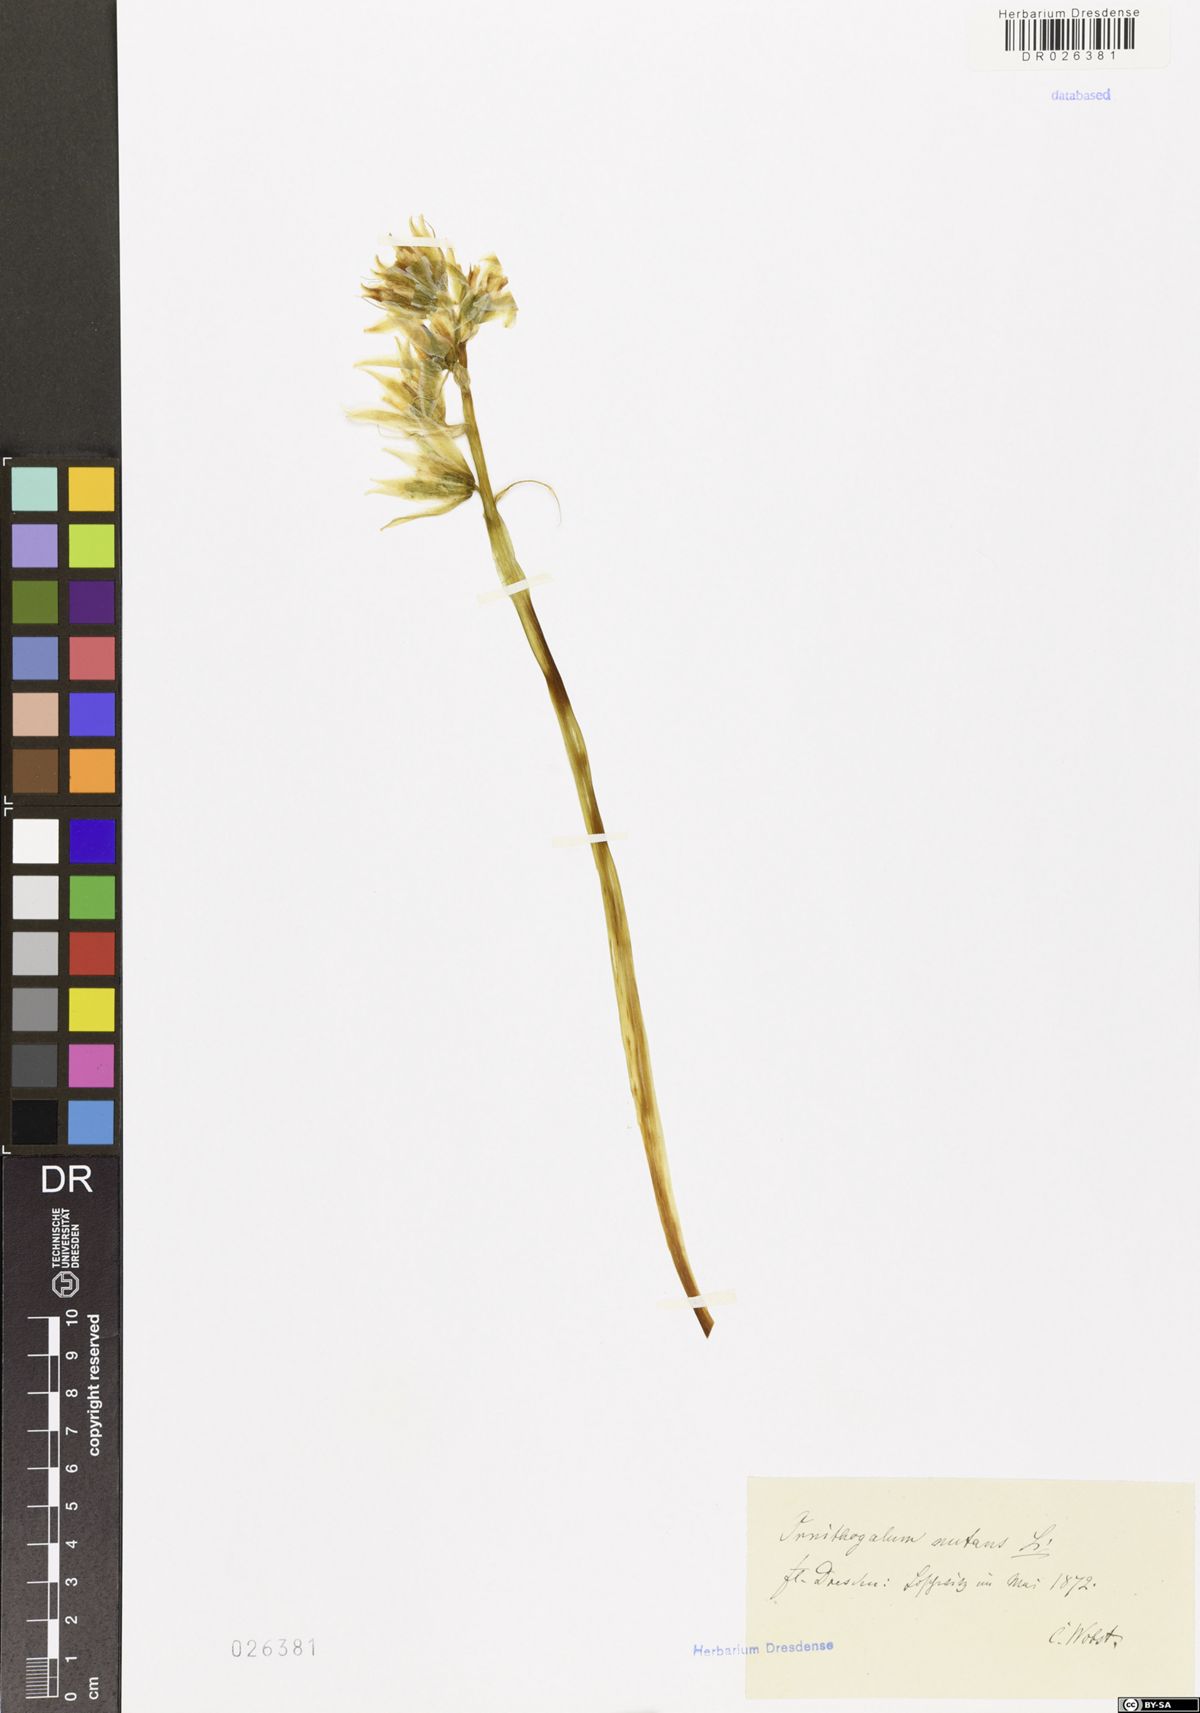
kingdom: Plantae
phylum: Tracheophyta
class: Liliopsida
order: Asparagales
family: Asparagaceae
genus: Ornithogalum
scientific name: Ornithogalum nutans
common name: Drooping star-of-bethlehem
